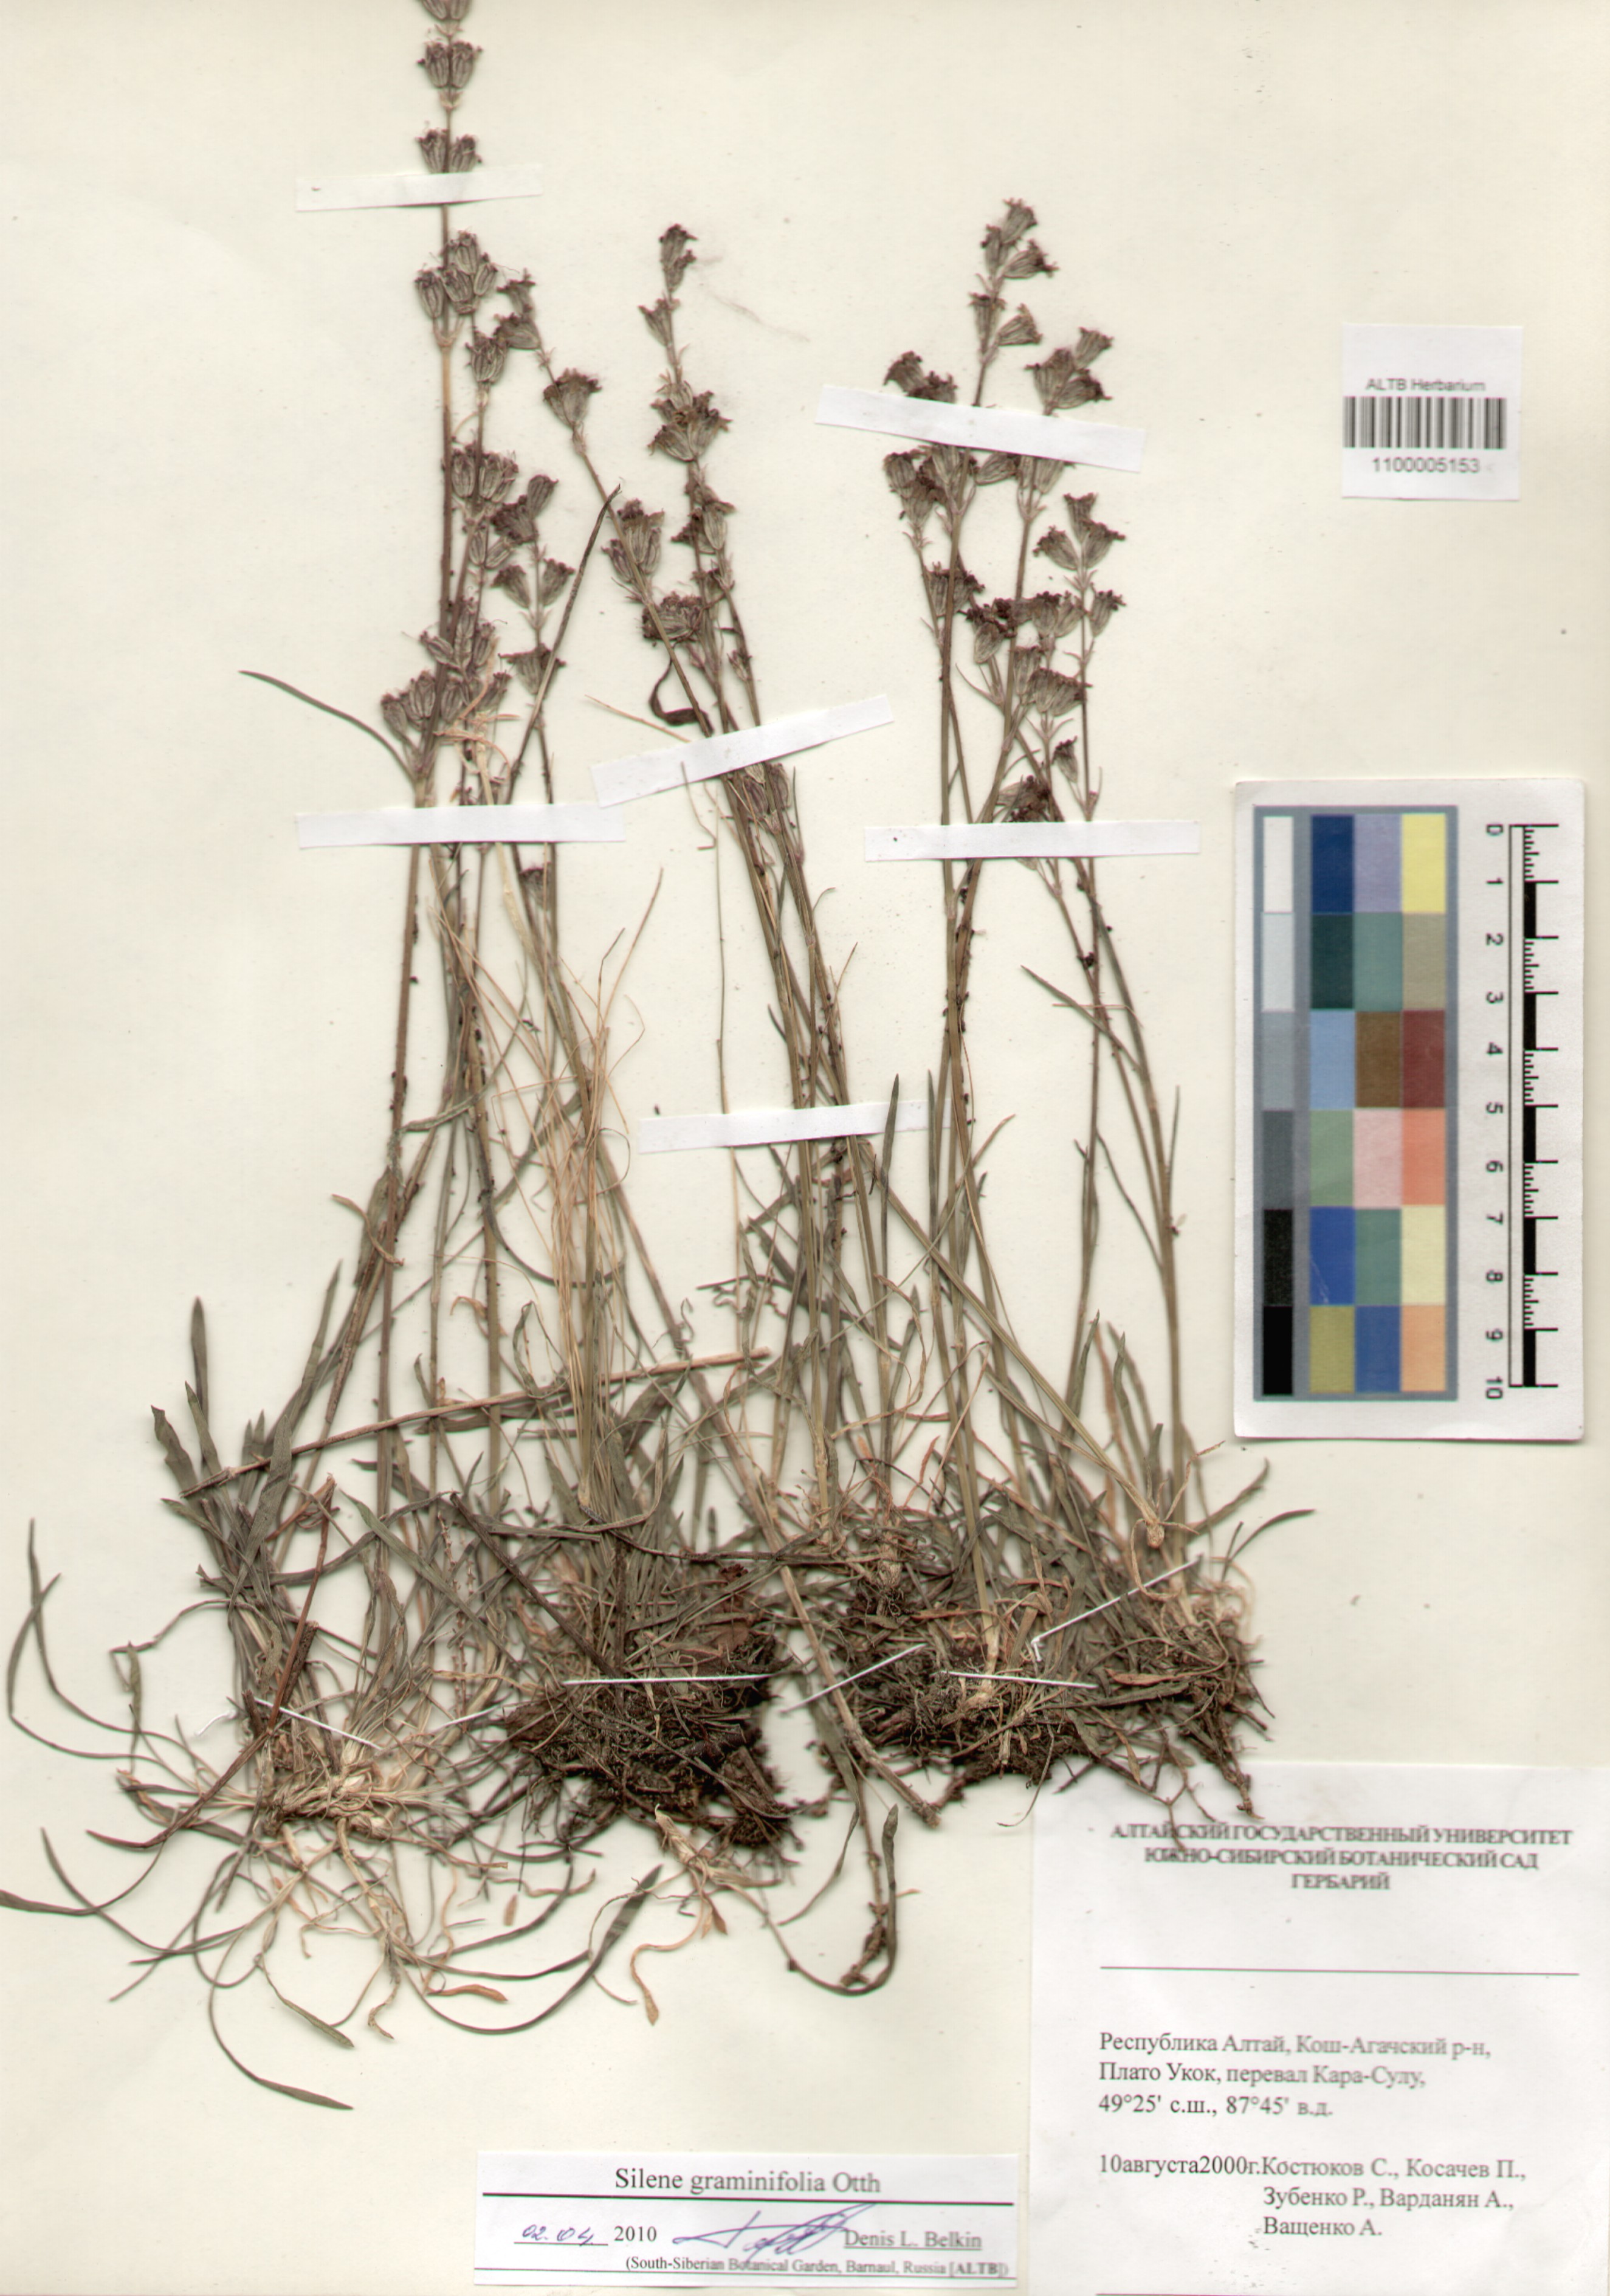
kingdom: Plantae
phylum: Tracheophyta
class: Magnoliopsida
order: Caryophyllales
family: Caryophyllaceae
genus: Silene
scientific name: Silene graminifolia
